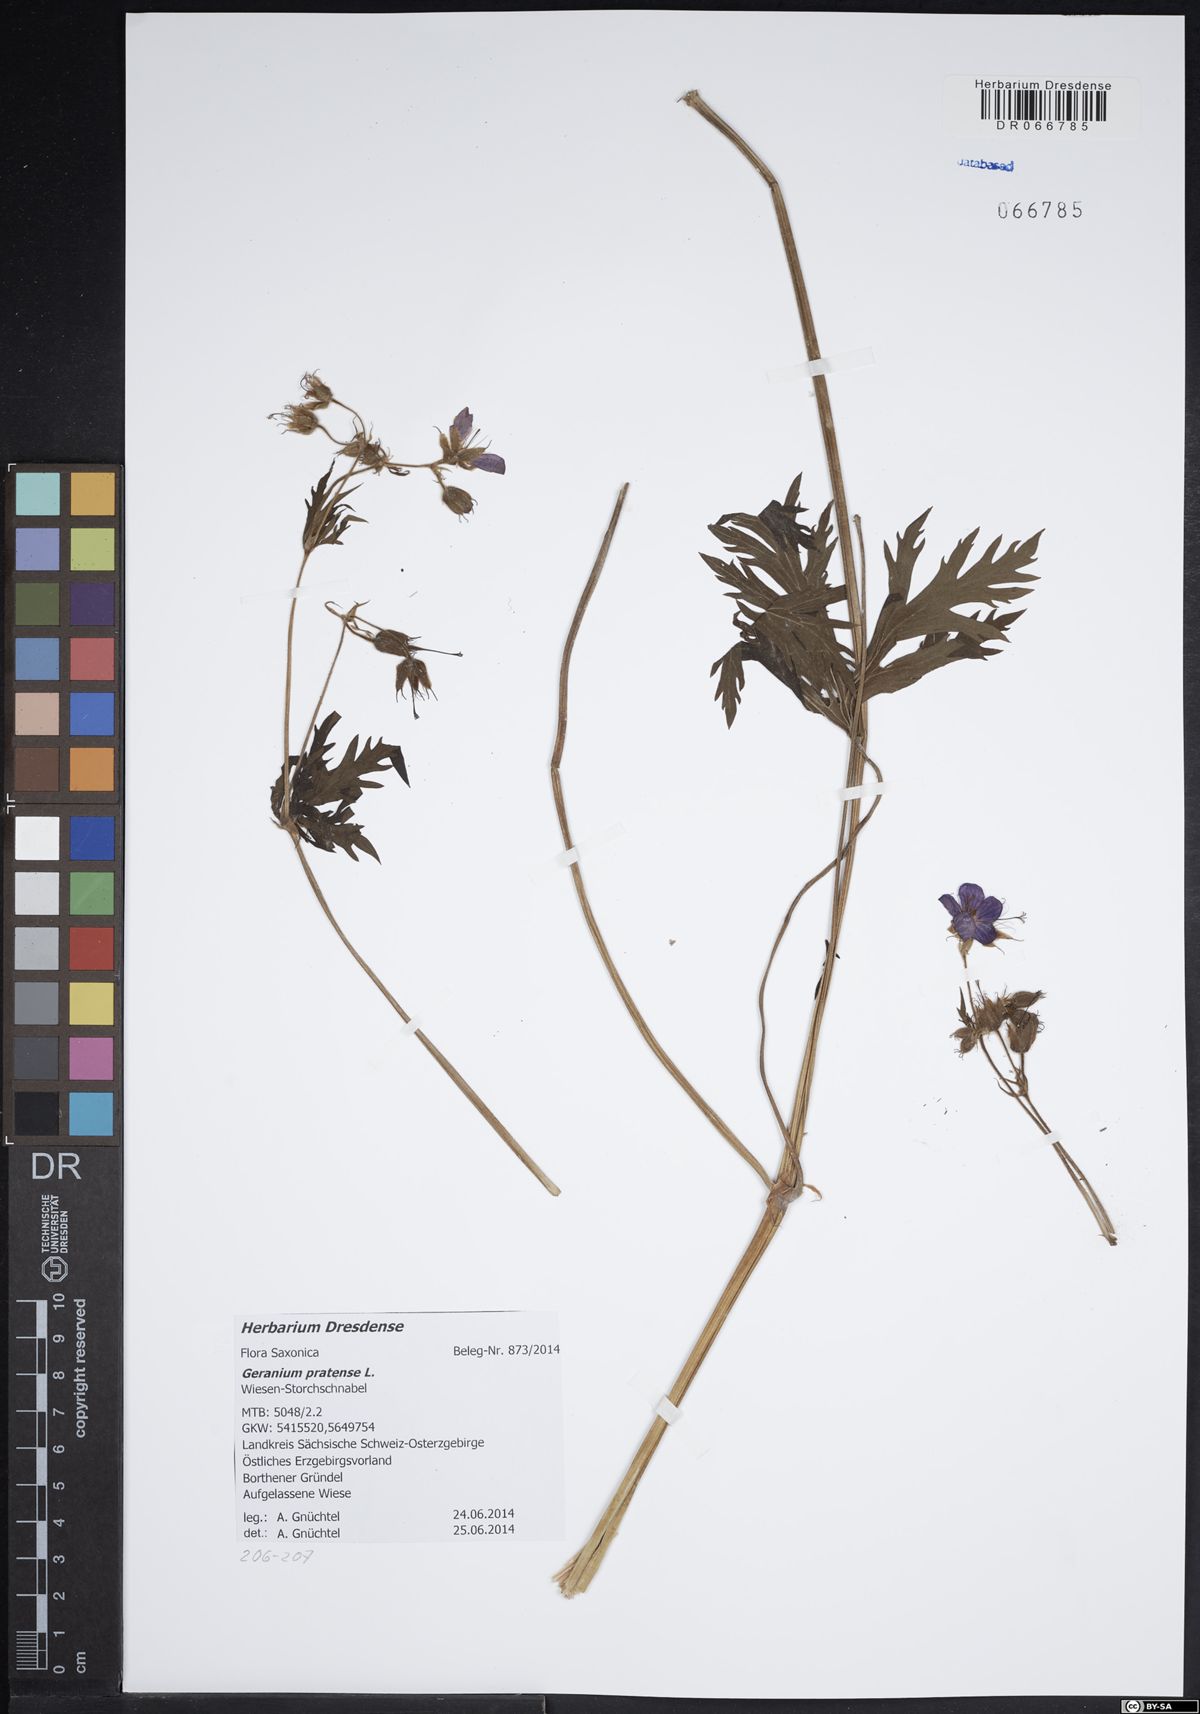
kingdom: Plantae
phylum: Tracheophyta
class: Magnoliopsida
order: Geraniales
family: Geraniaceae
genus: Geranium
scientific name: Geranium pratense
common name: Meadow crane's-bill
